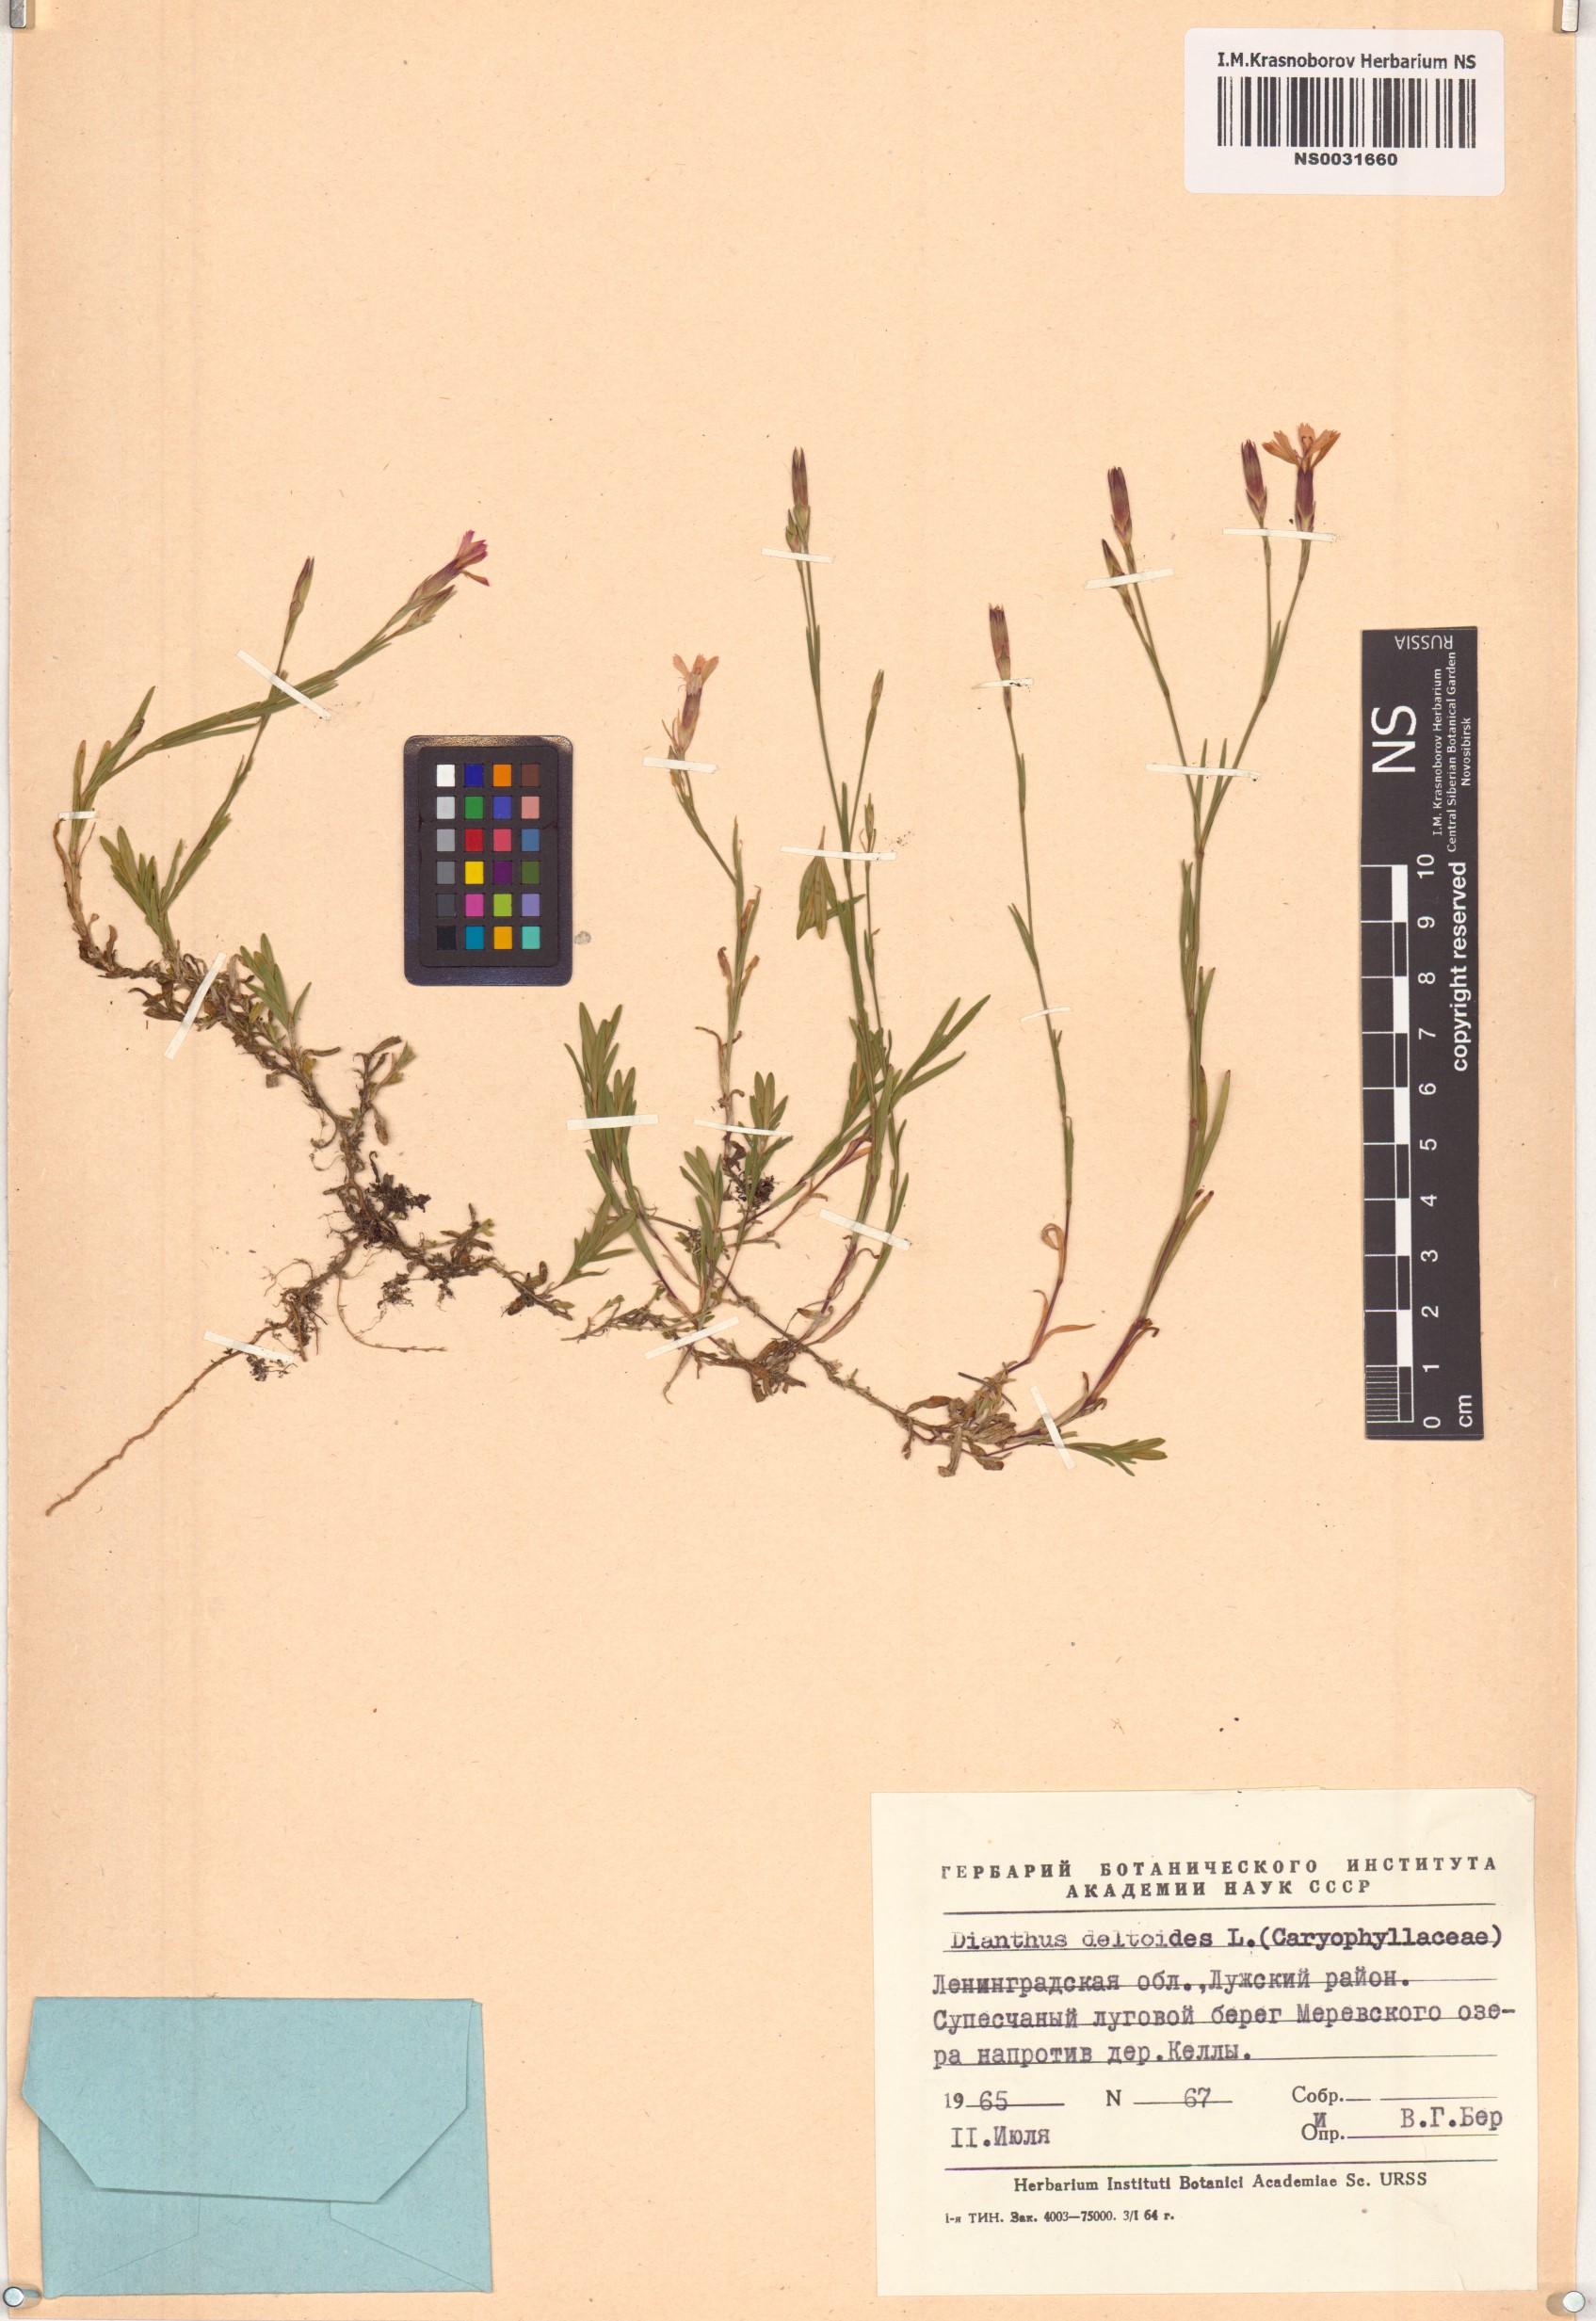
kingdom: Plantae
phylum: Tracheophyta
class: Magnoliopsida
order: Caryophyllales
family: Caryophyllaceae
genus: Dianthus
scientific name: Dianthus deltoides
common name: Maiden pink
